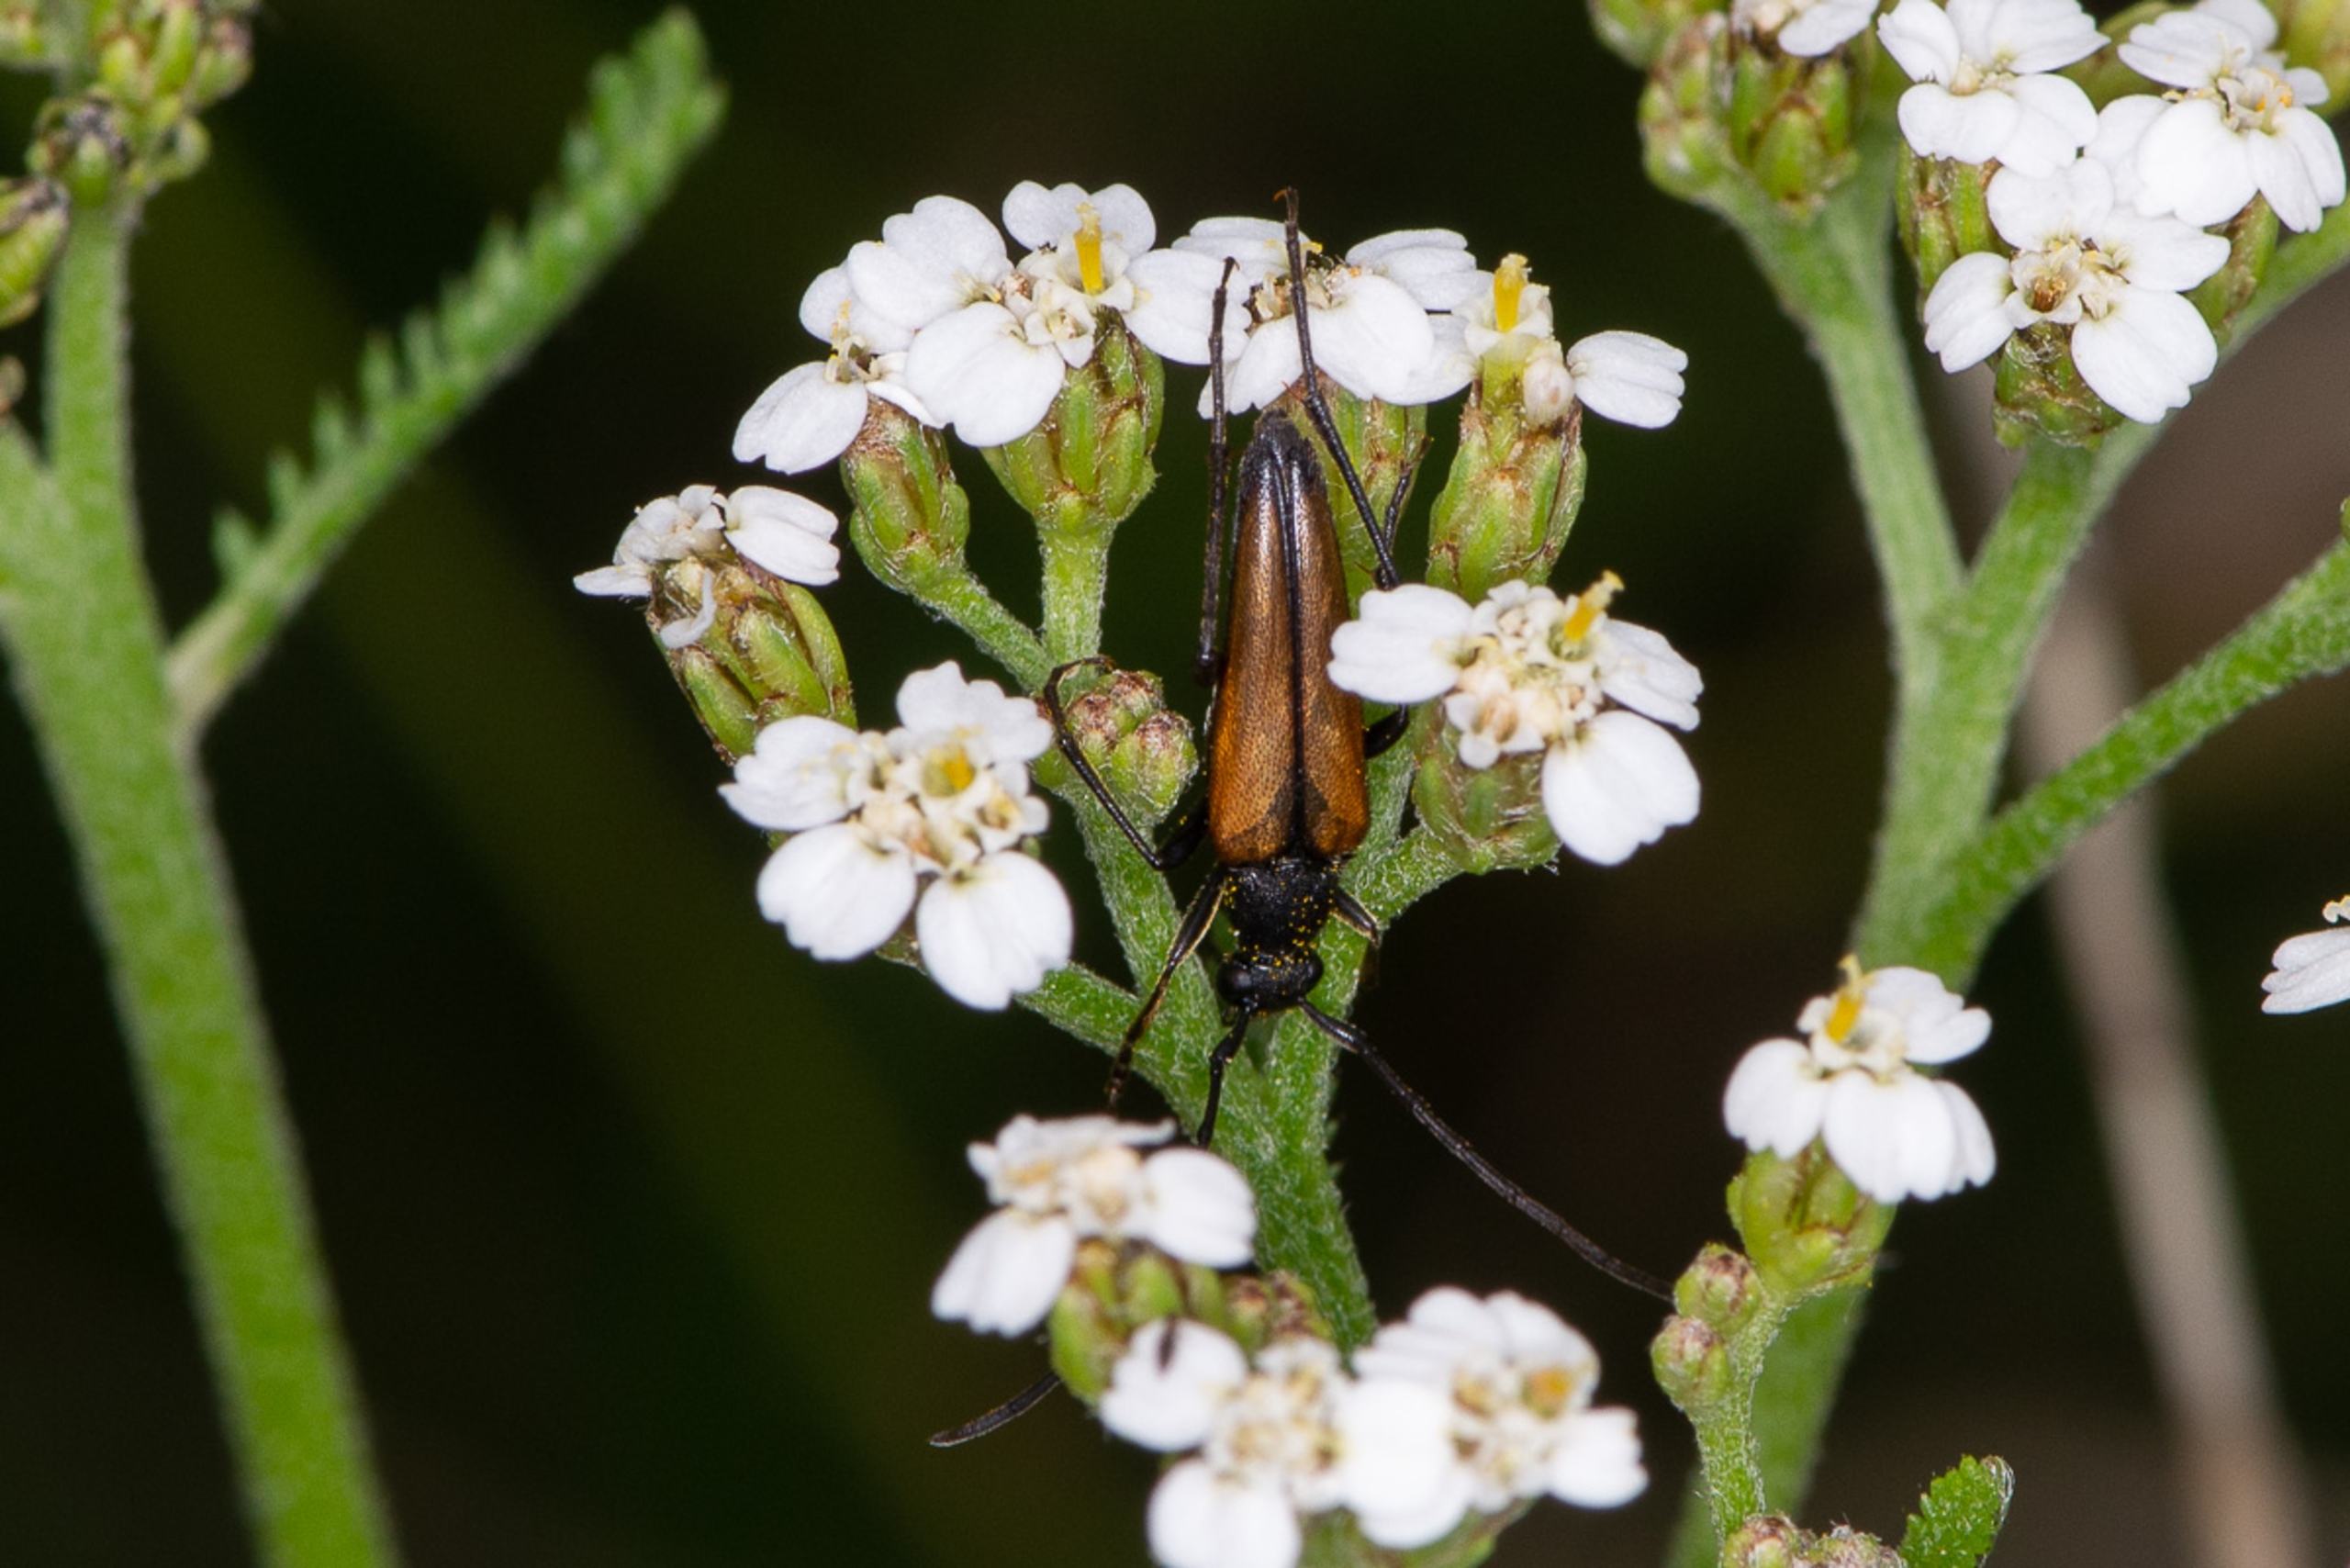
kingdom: Animalia
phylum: Arthropoda
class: Insecta
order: Coleoptera
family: Cerambycidae
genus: Stenurella
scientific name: Stenurella melanura
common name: Sortsømmet blomsterbuk
